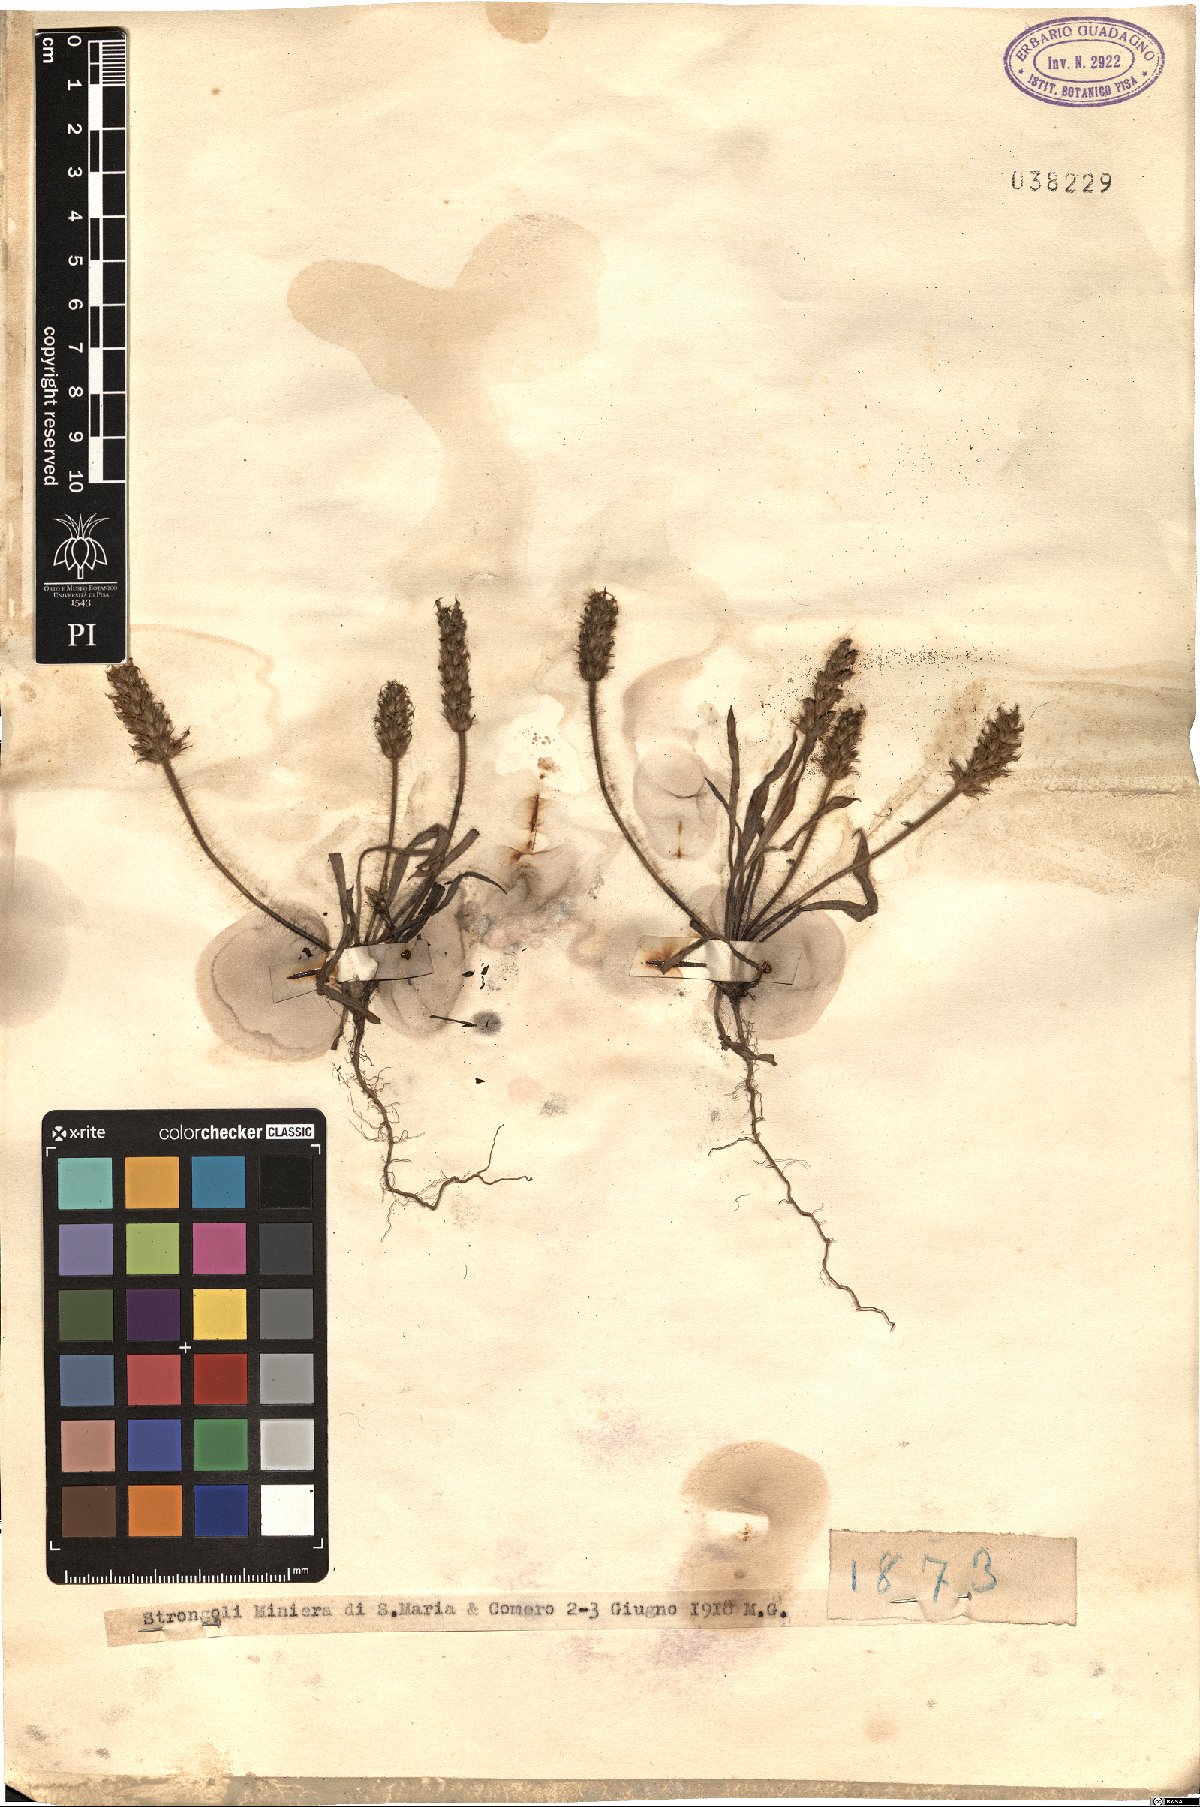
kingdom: Plantae
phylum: Tracheophyta
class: Magnoliopsida
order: Lamiales
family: Plantaginaceae
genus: Plantago
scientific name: Plantago
